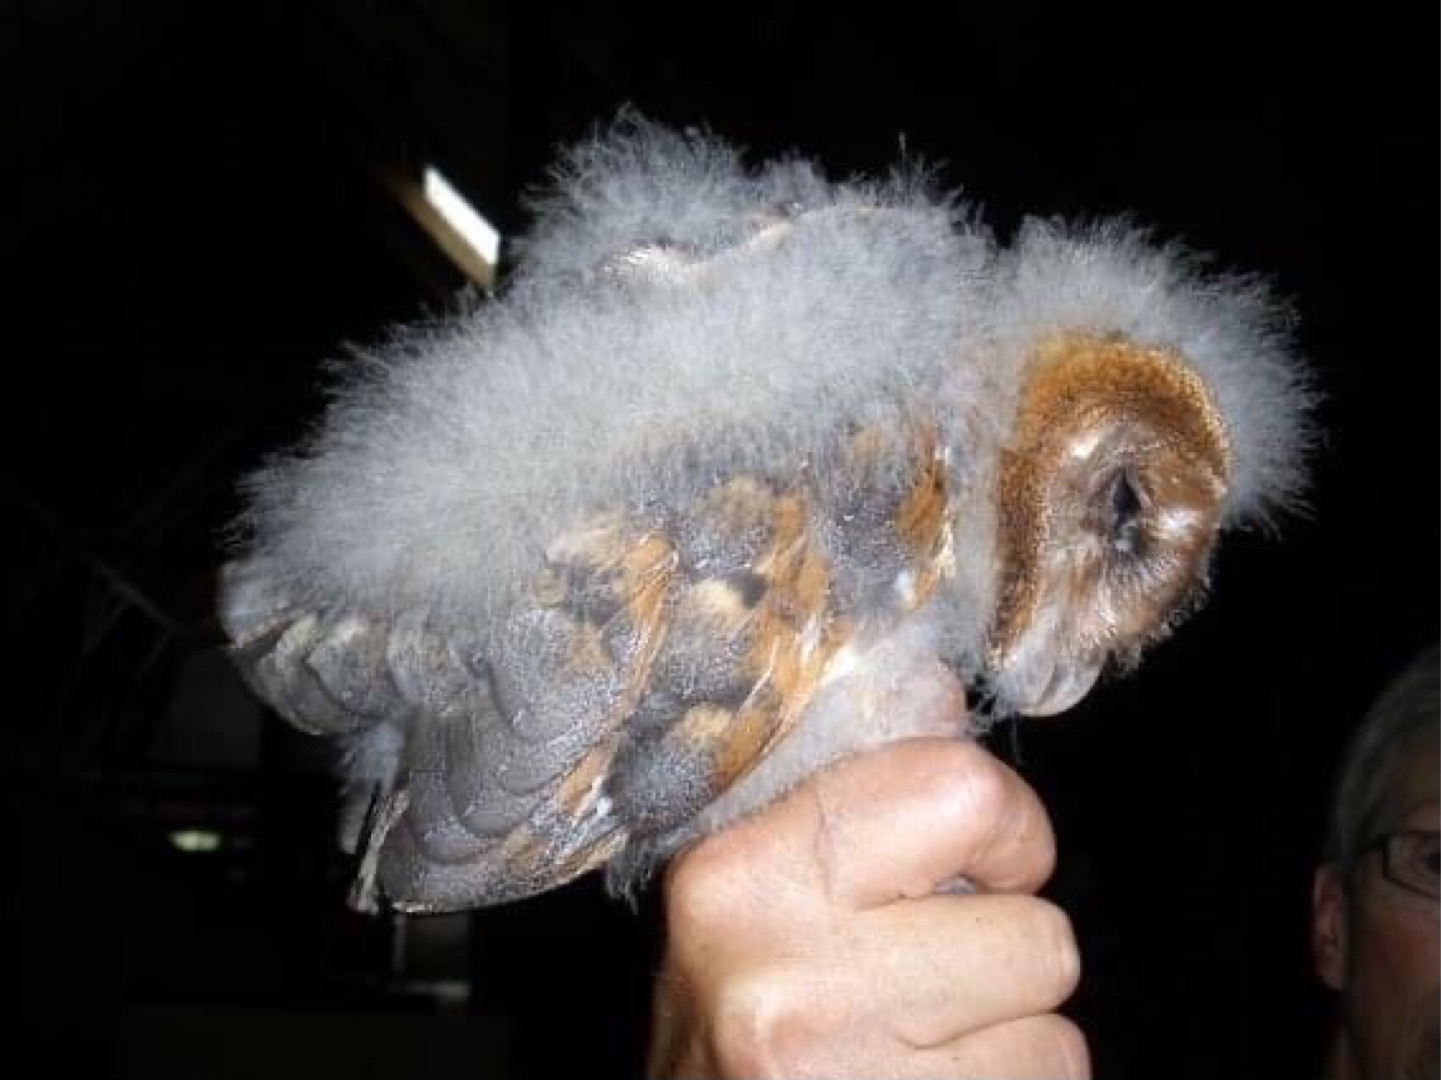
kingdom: Animalia
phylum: Chordata
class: Aves
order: Strigiformes
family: Tytonidae
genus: Tyto
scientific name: Tyto alba
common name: Slørugle
